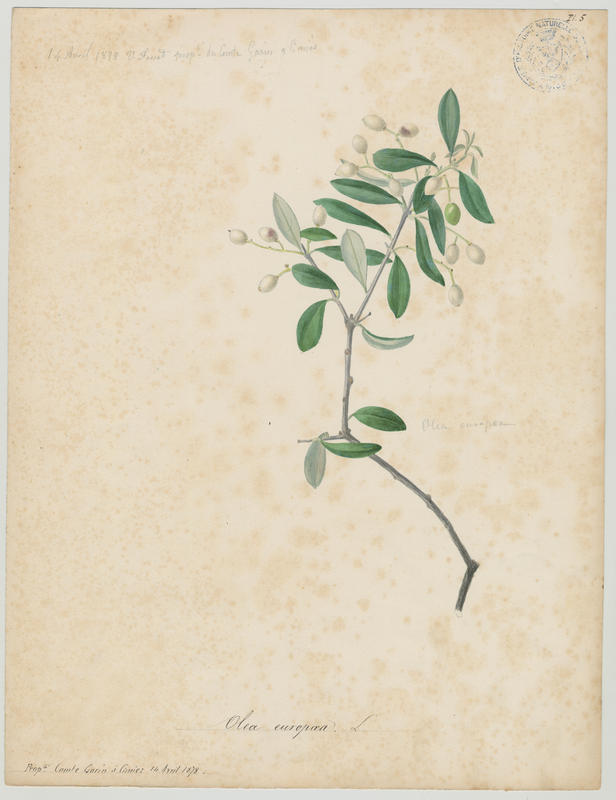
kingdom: Plantae
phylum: Tracheophyta
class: Magnoliopsida
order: Lamiales
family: Oleaceae
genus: Olea
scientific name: Olea europaea
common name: Olive
